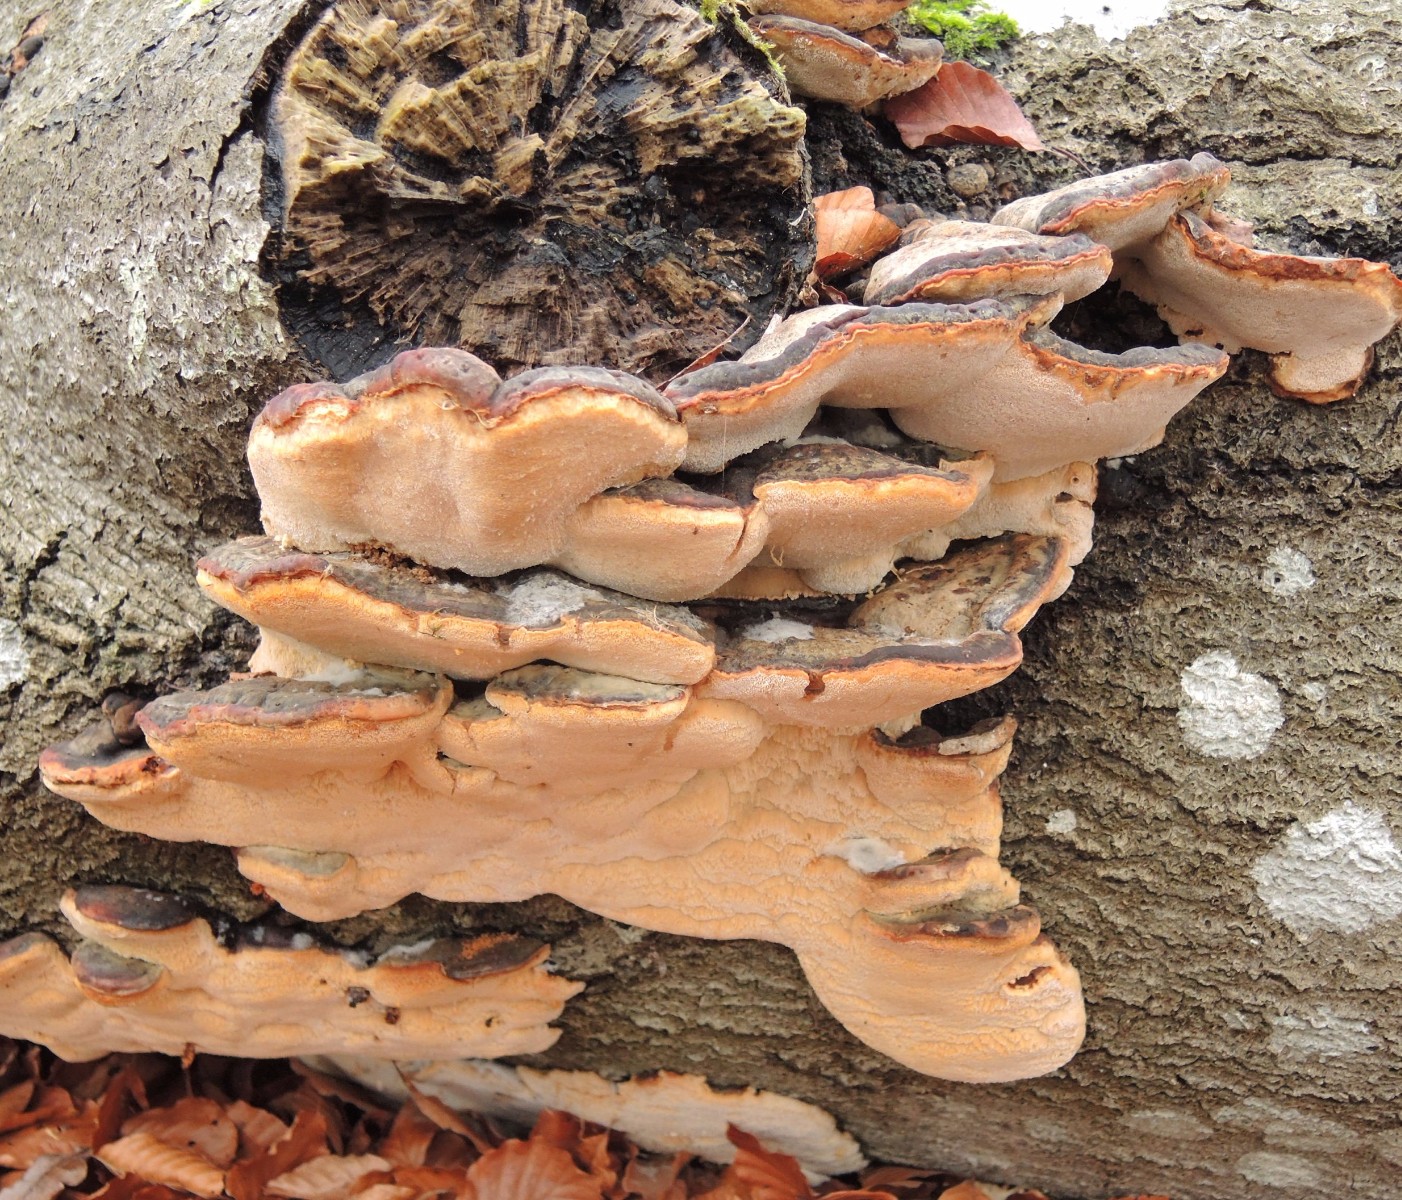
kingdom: Fungi
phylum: Basidiomycota
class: Agaricomycetes
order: Polyporales
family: Ischnodermataceae
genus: Ischnoderma
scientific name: Ischnoderma resinosum
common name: løv-tjæreporesvamp
